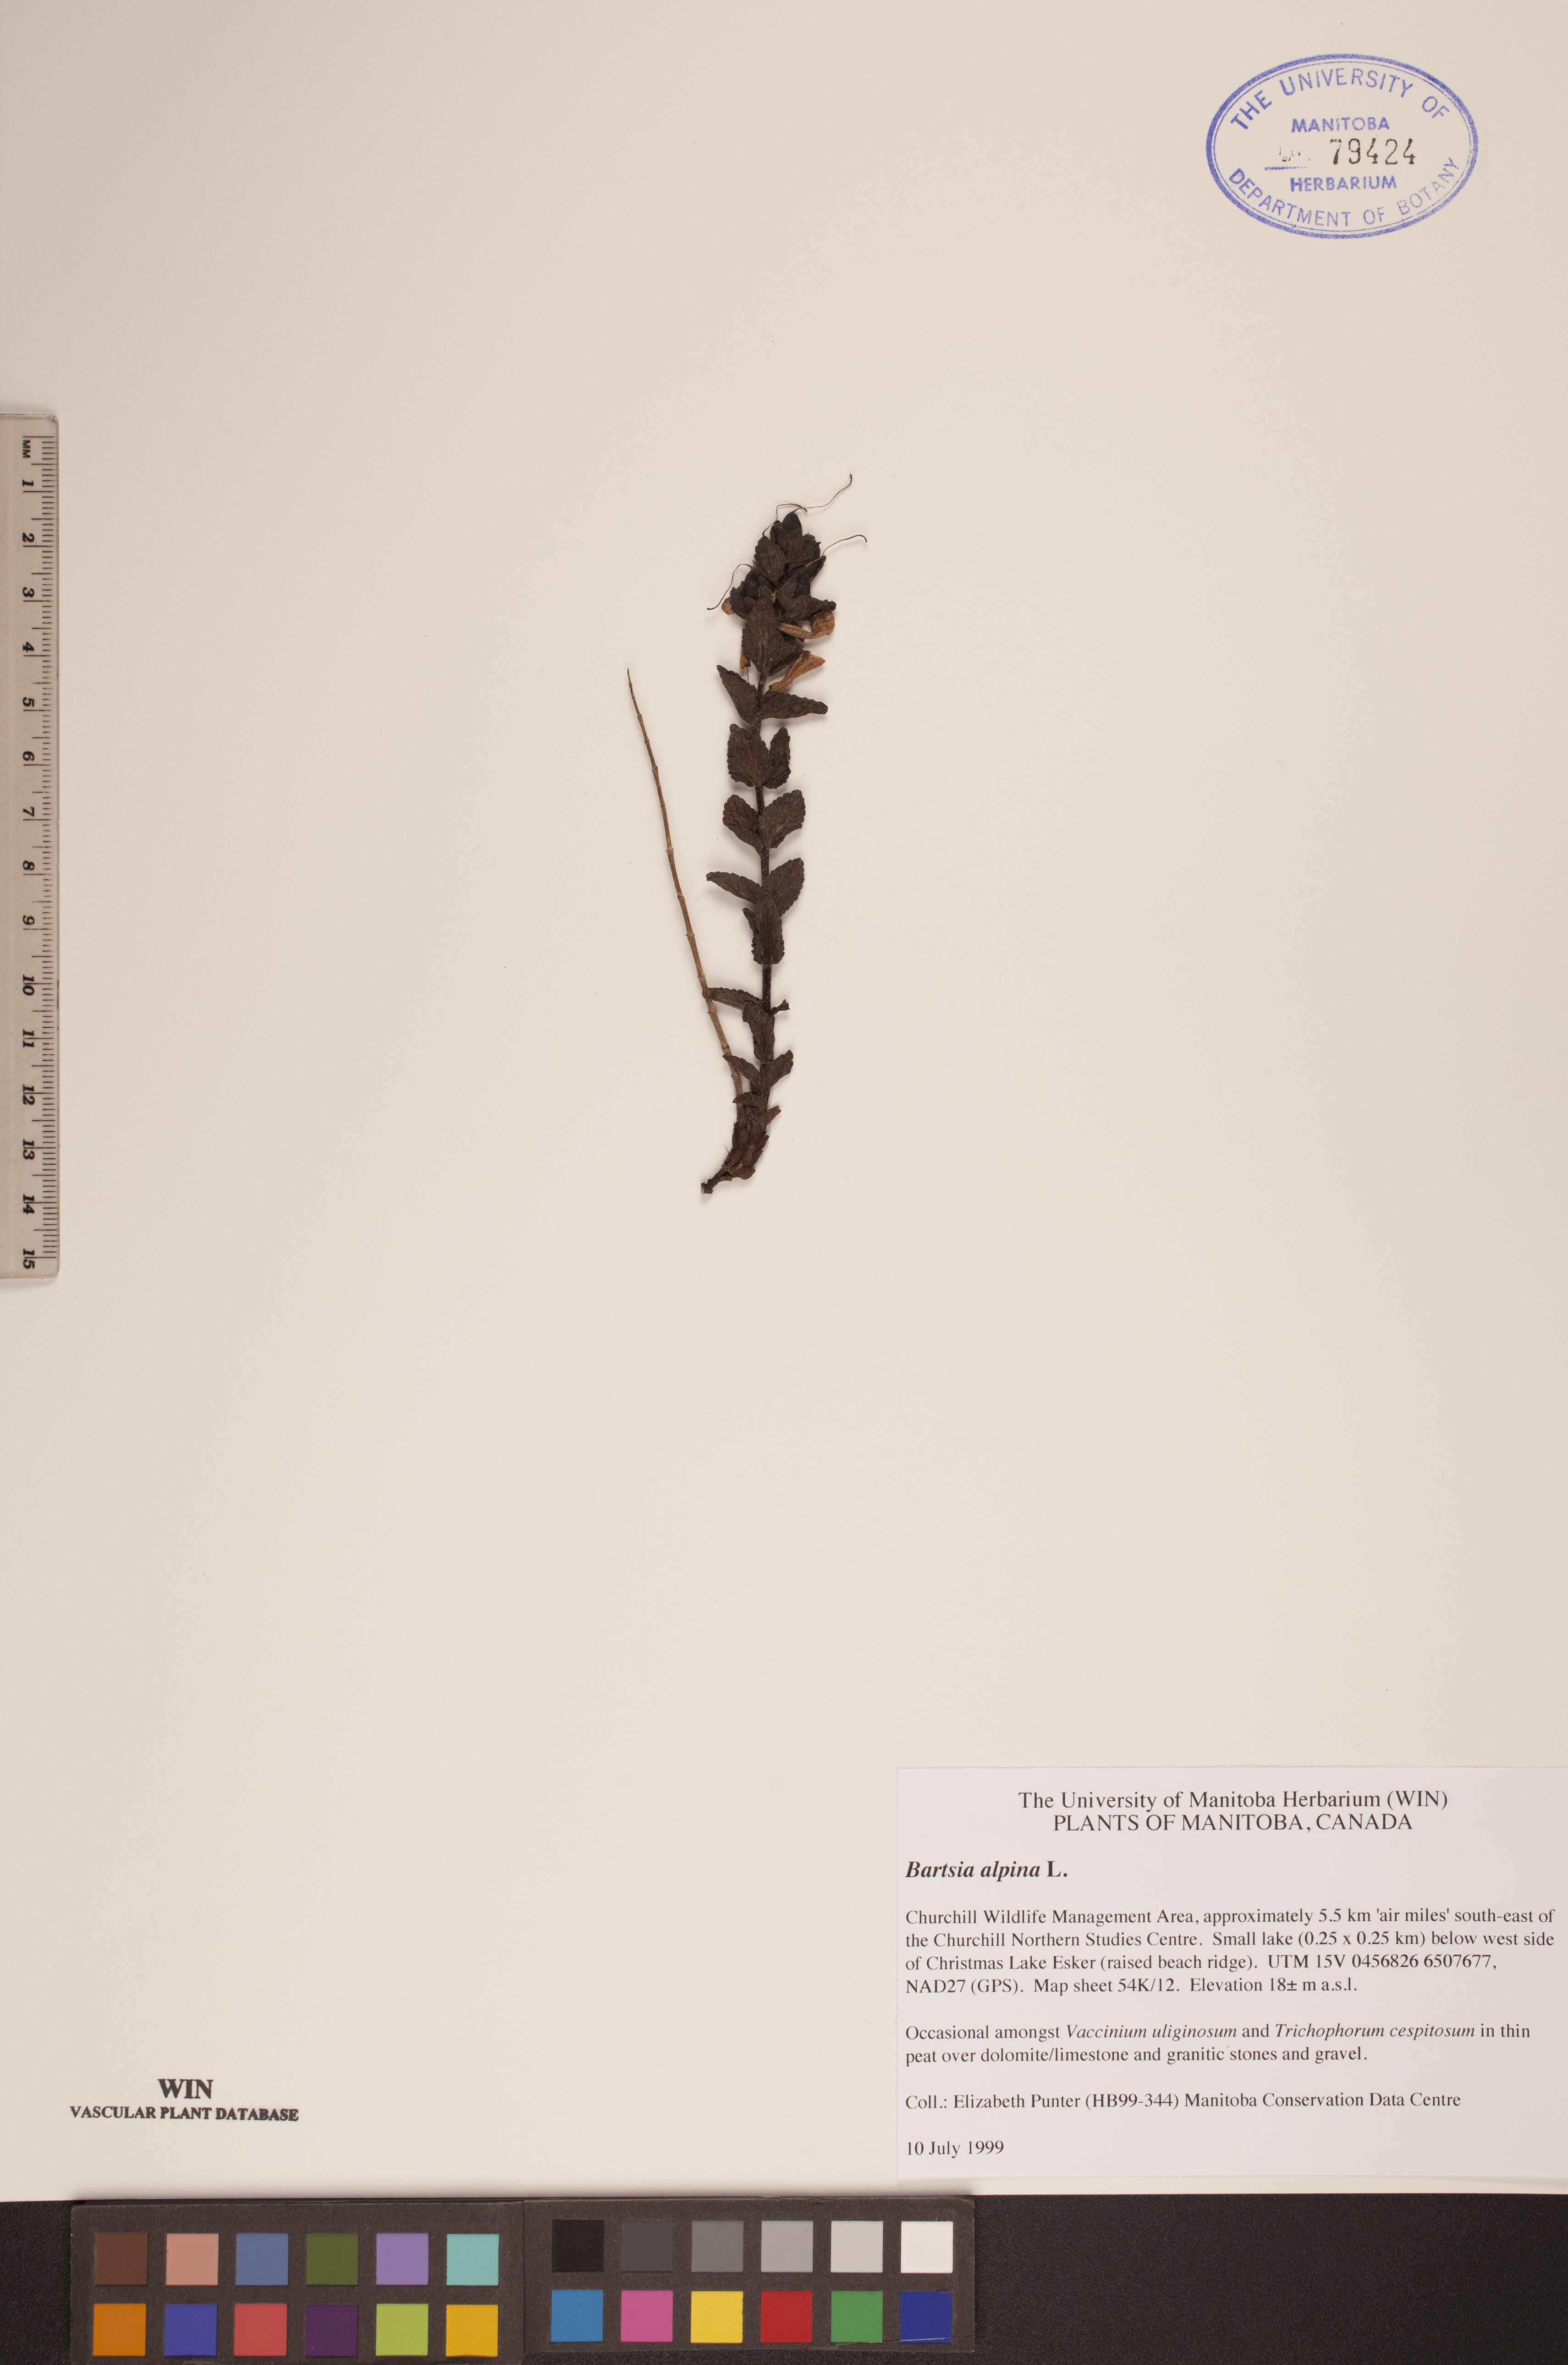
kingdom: Plantae
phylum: Tracheophyta
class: Magnoliopsida
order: Lamiales
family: Orobanchaceae
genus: Bartsia
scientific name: Bartsia alpina
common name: Alpine bartsia
